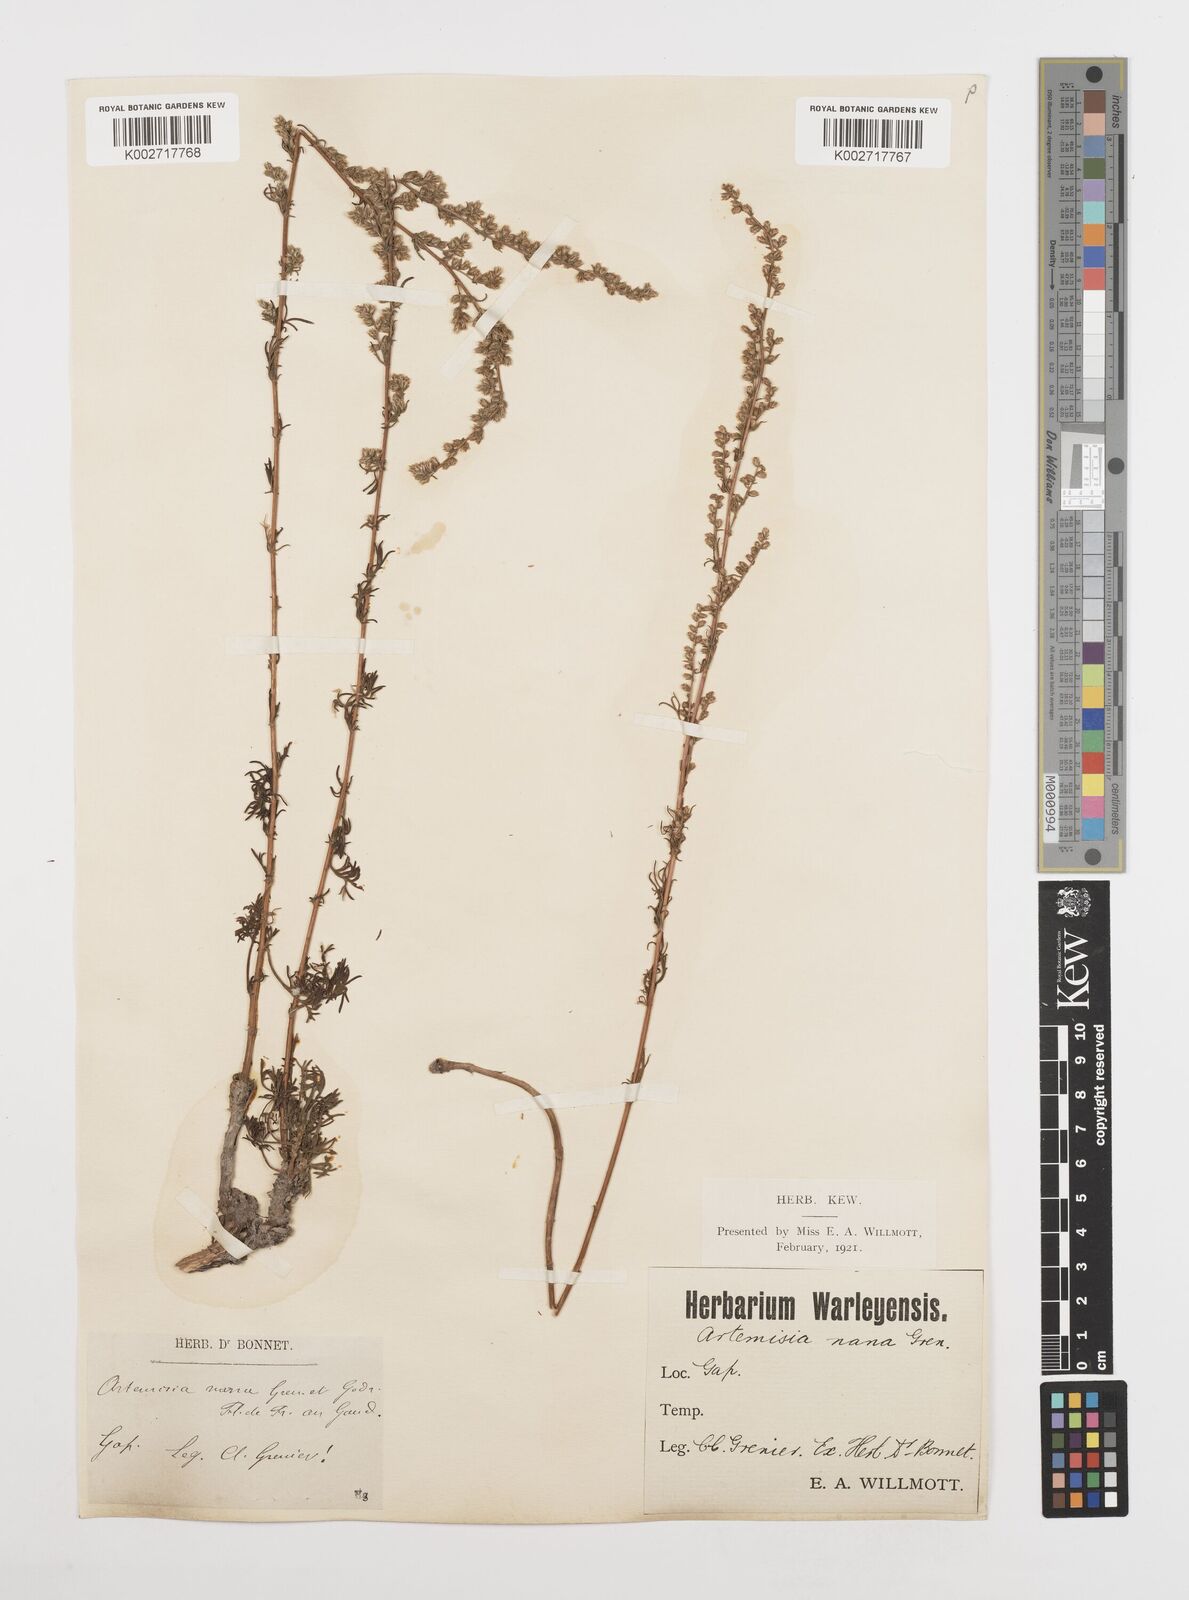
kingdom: Plantae
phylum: Tracheophyta
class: Magnoliopsida
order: Asterales
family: Asteraceae
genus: Artemisia
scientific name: Artemisia campestris
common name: Field wormwood
